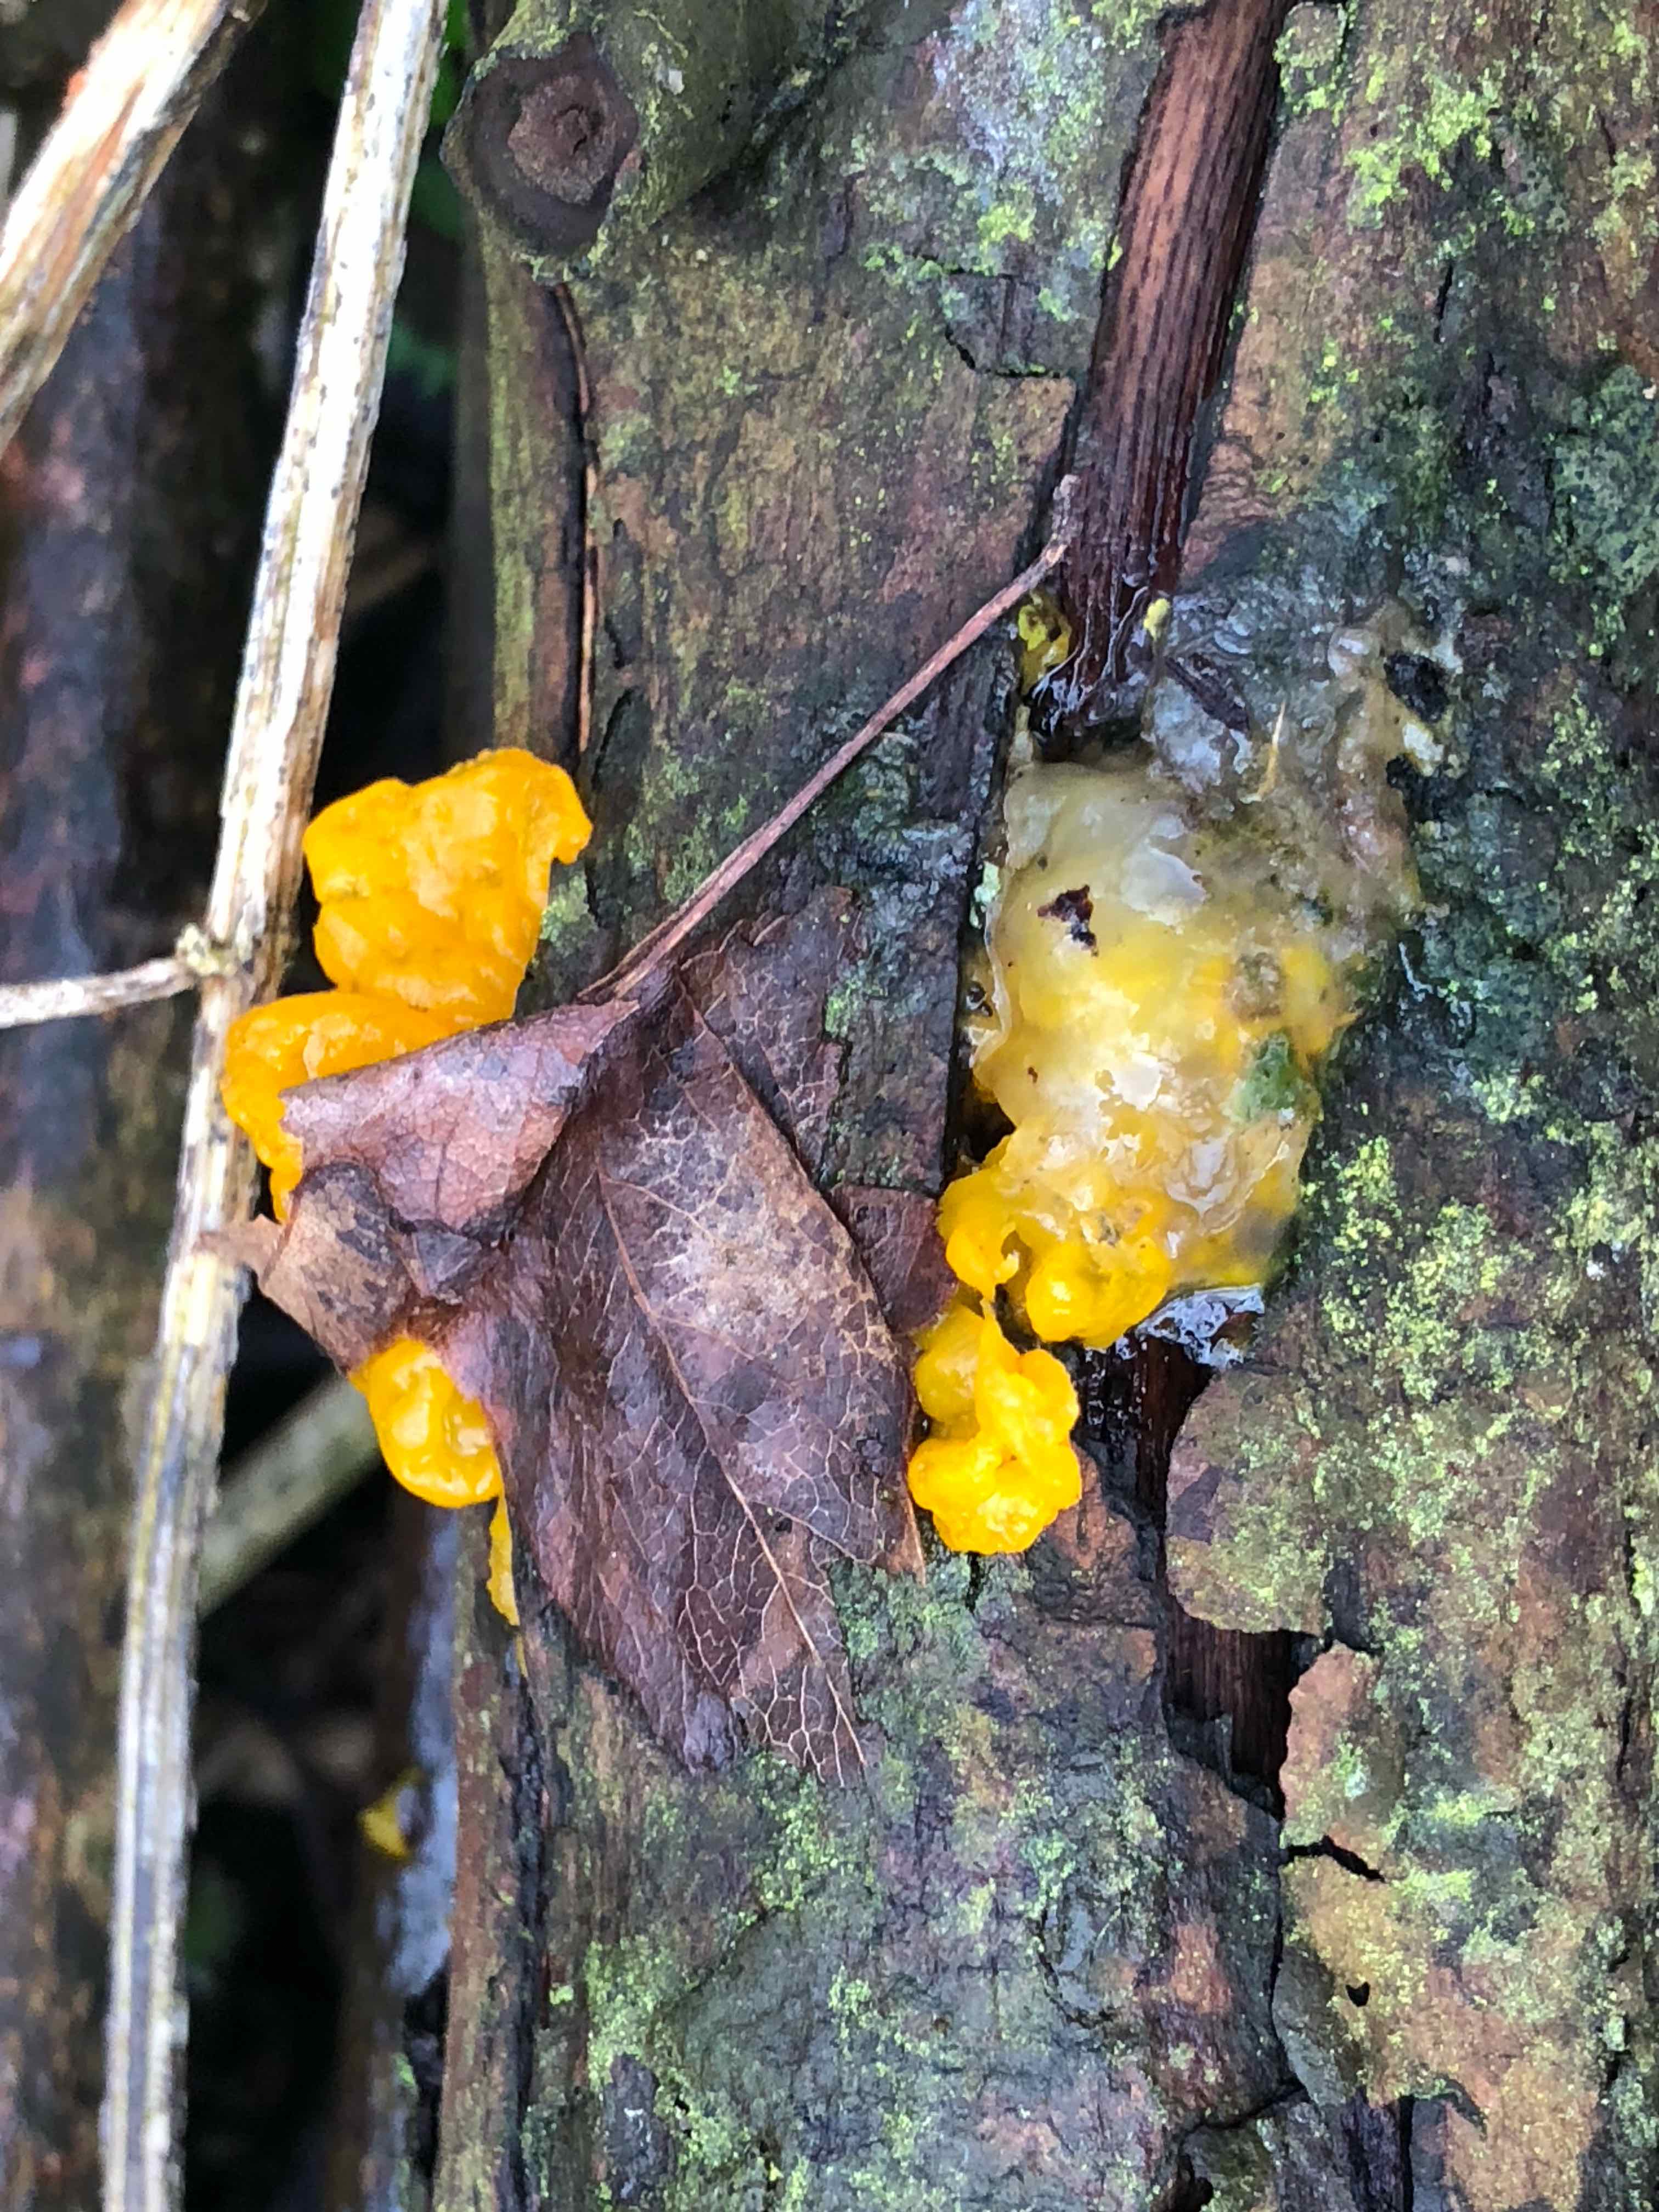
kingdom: Fungi
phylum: Basidiomycota
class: Tremellomycetes
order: Tremellales
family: Tremellaceae
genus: Tremella
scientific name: Tremella mesenterica
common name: gul bævresvamp
